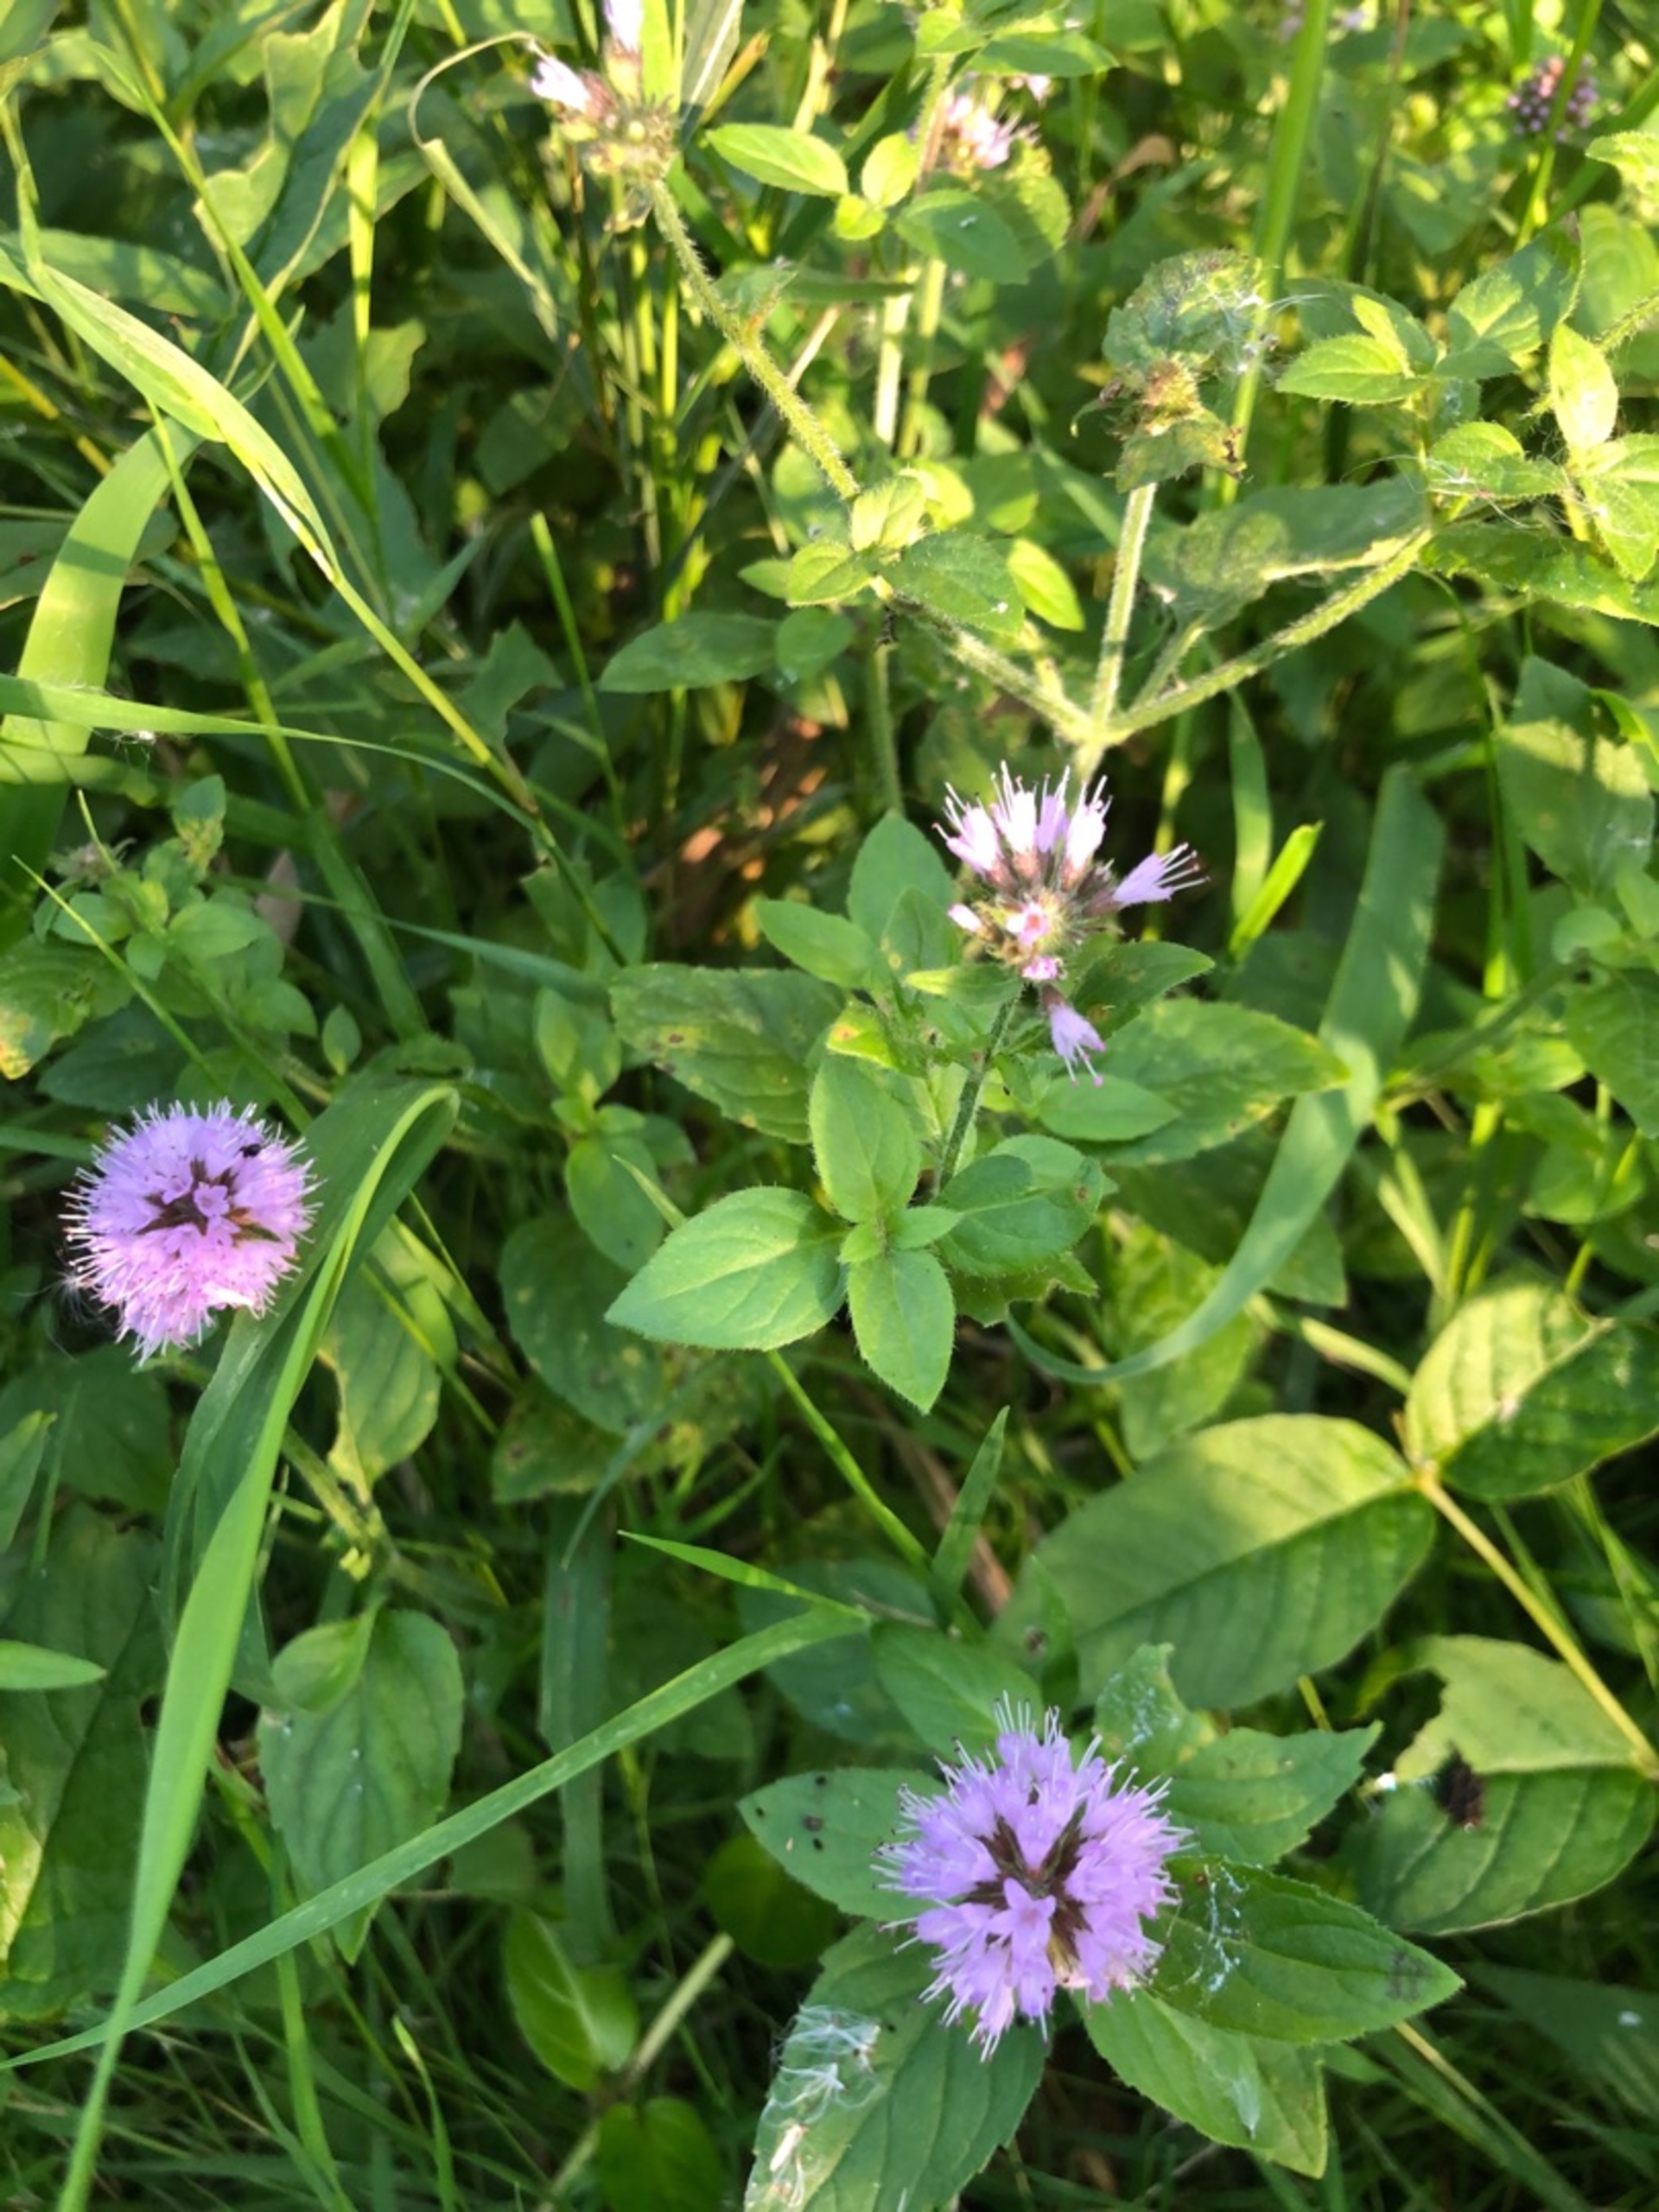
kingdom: Plantae
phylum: Tracheophyta
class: Magnoliopsida
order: Lamiales
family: Lamiaceae
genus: Mentha
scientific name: Mentha aquatica
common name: Vand-mynte
